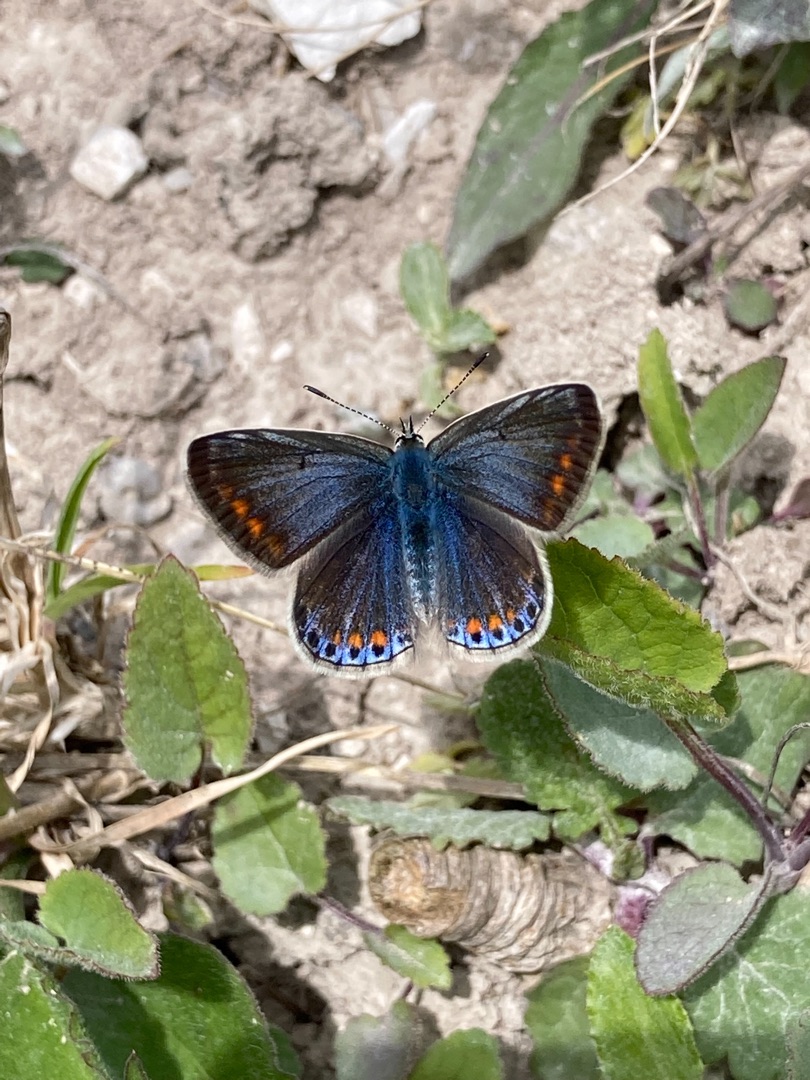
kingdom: Animalia
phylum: Arthropoda
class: Insecta
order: Lepidoptera
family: Lycaenidae
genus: Polyommatus
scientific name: Polyommatus icarus
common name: Almindelig blåfugl
